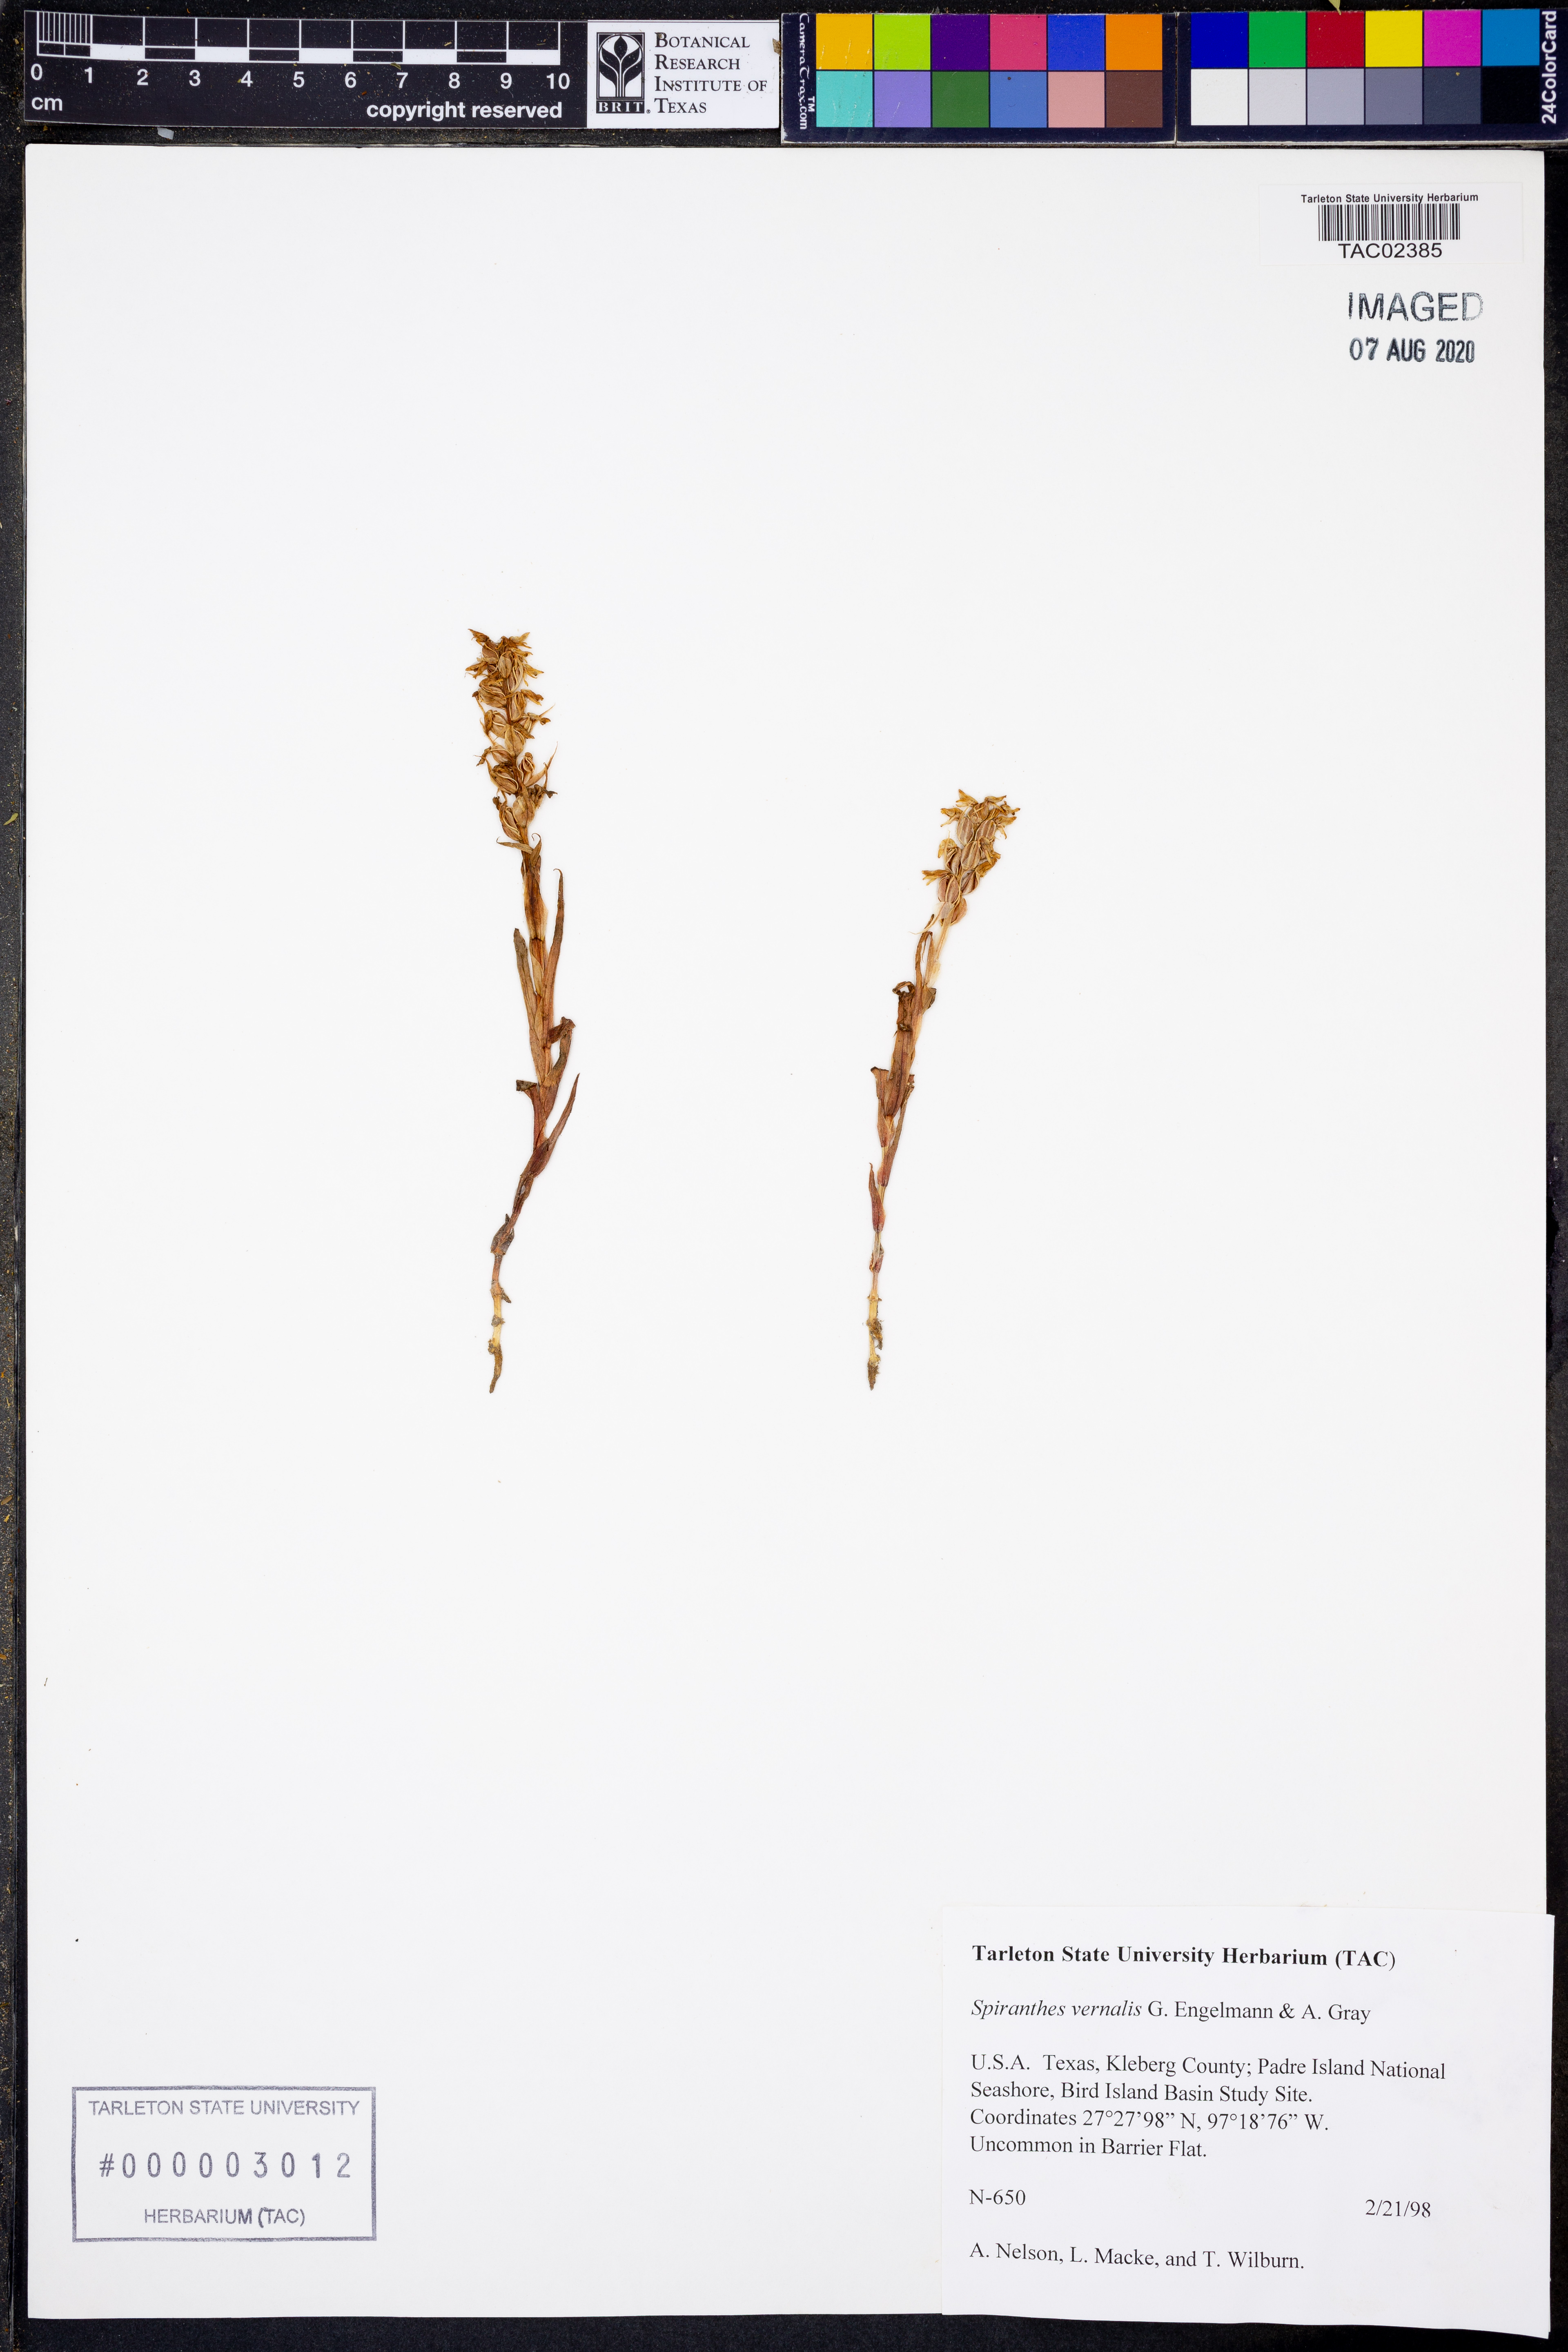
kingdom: Plantae
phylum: Tracheophyta
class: Liliopsida
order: Asparagales
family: Orchidaceae
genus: Spiranthes
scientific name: Spiranthes vernalis
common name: Spring ladies'-tresses
